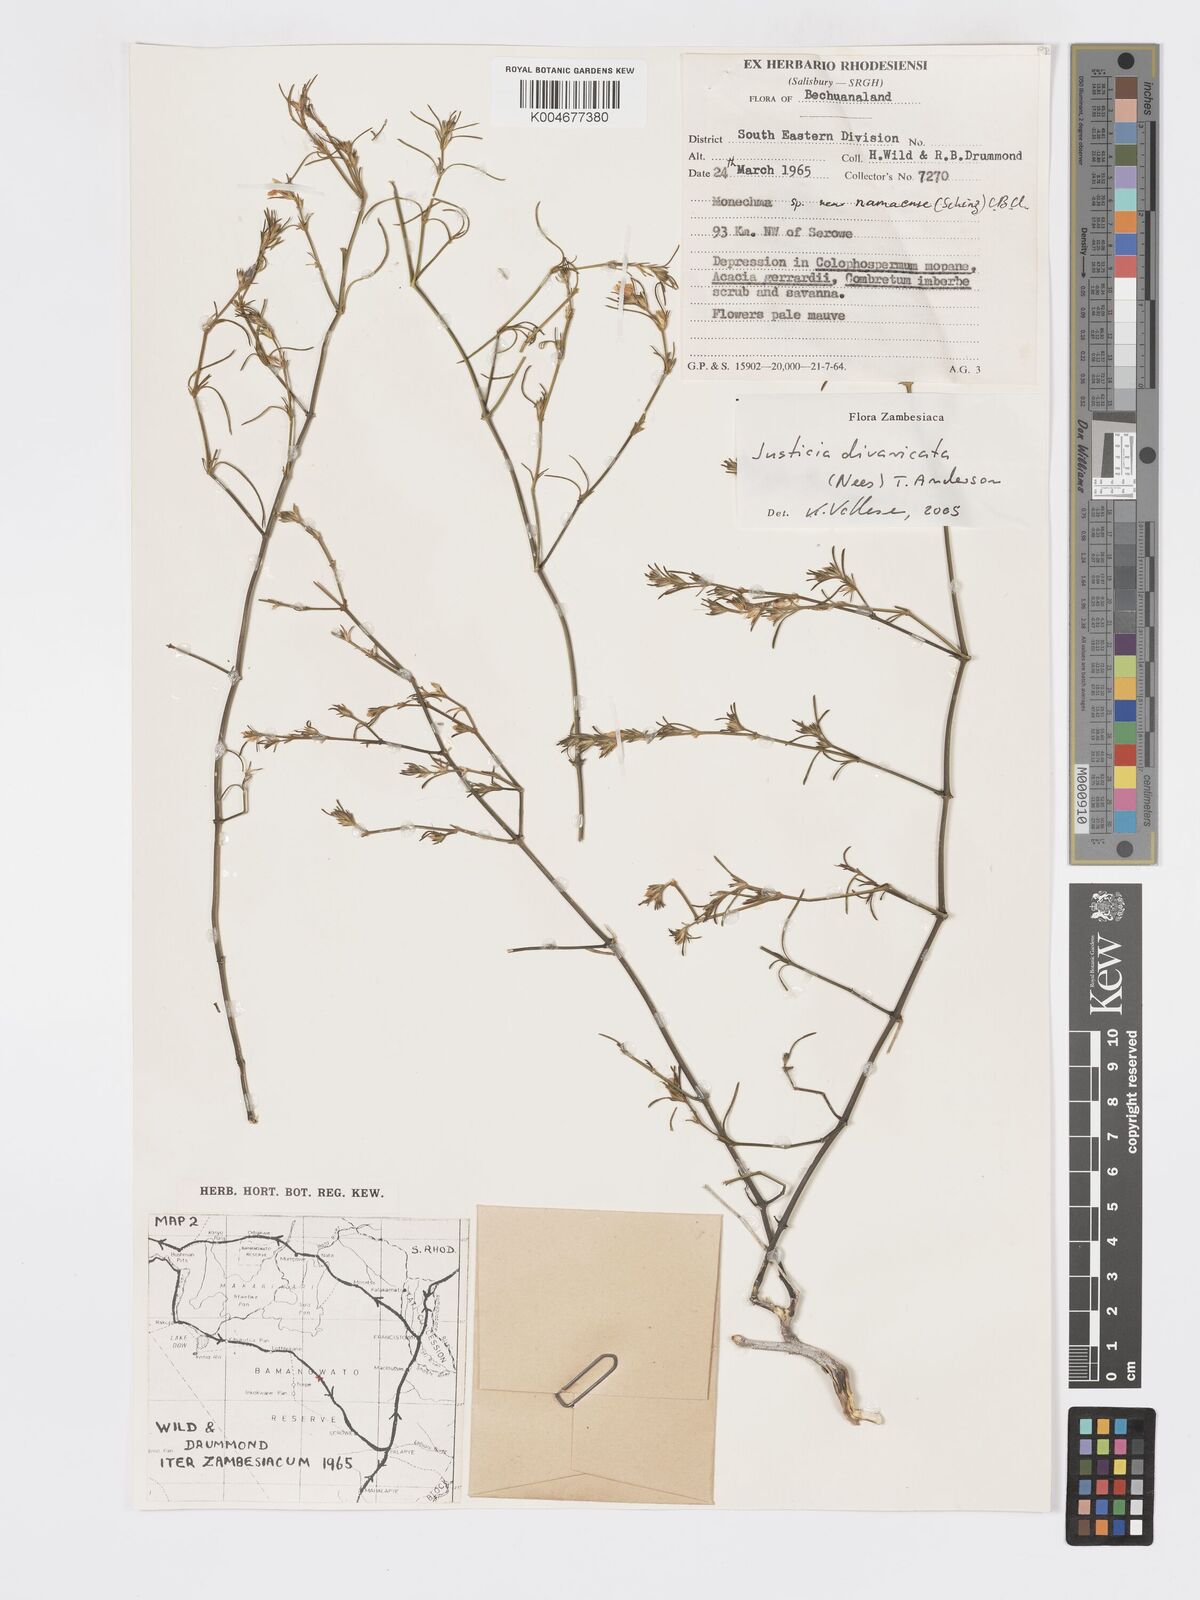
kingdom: Plantae
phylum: Tracheophyta
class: Magnoliopsida
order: Lamiales
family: Acanthaceae
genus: Pogonospermum
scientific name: Pogonospermum
